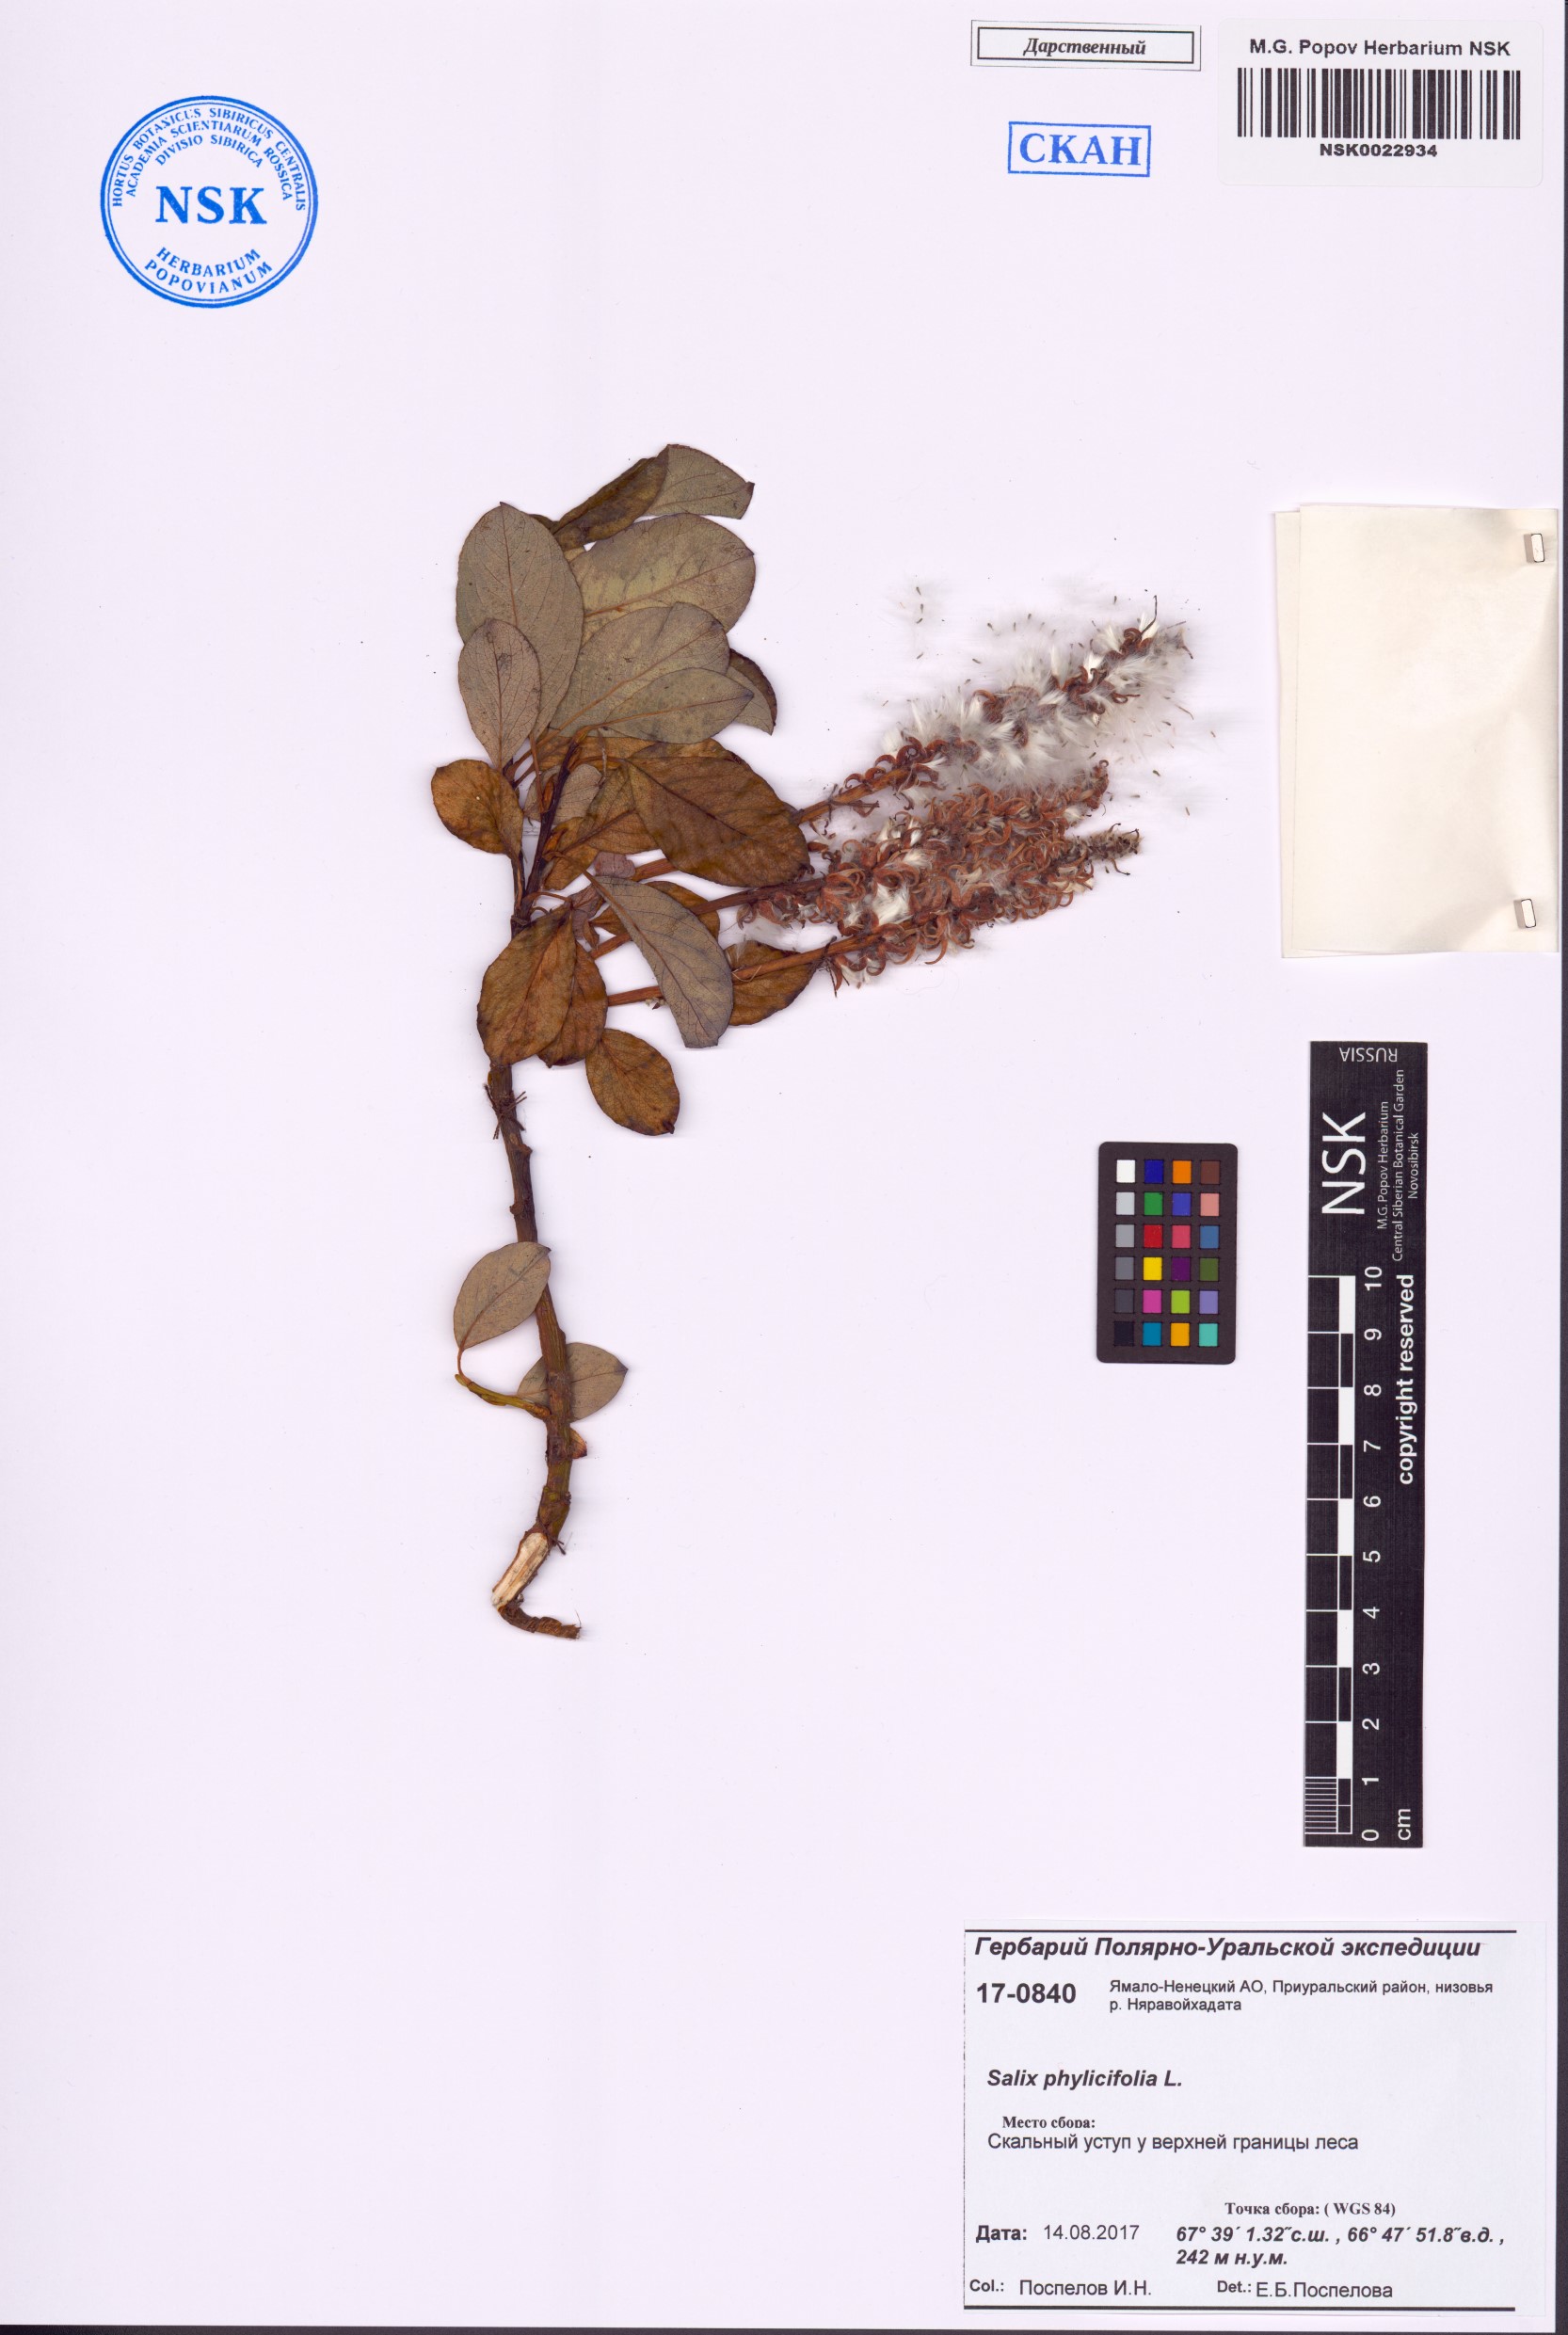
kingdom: Plantae
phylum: Tracheophyta
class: Magnoliopsida
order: Malpighiales
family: Salicaceae
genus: Salix
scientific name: Salix phylicifolia
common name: Tea-leaved willow
